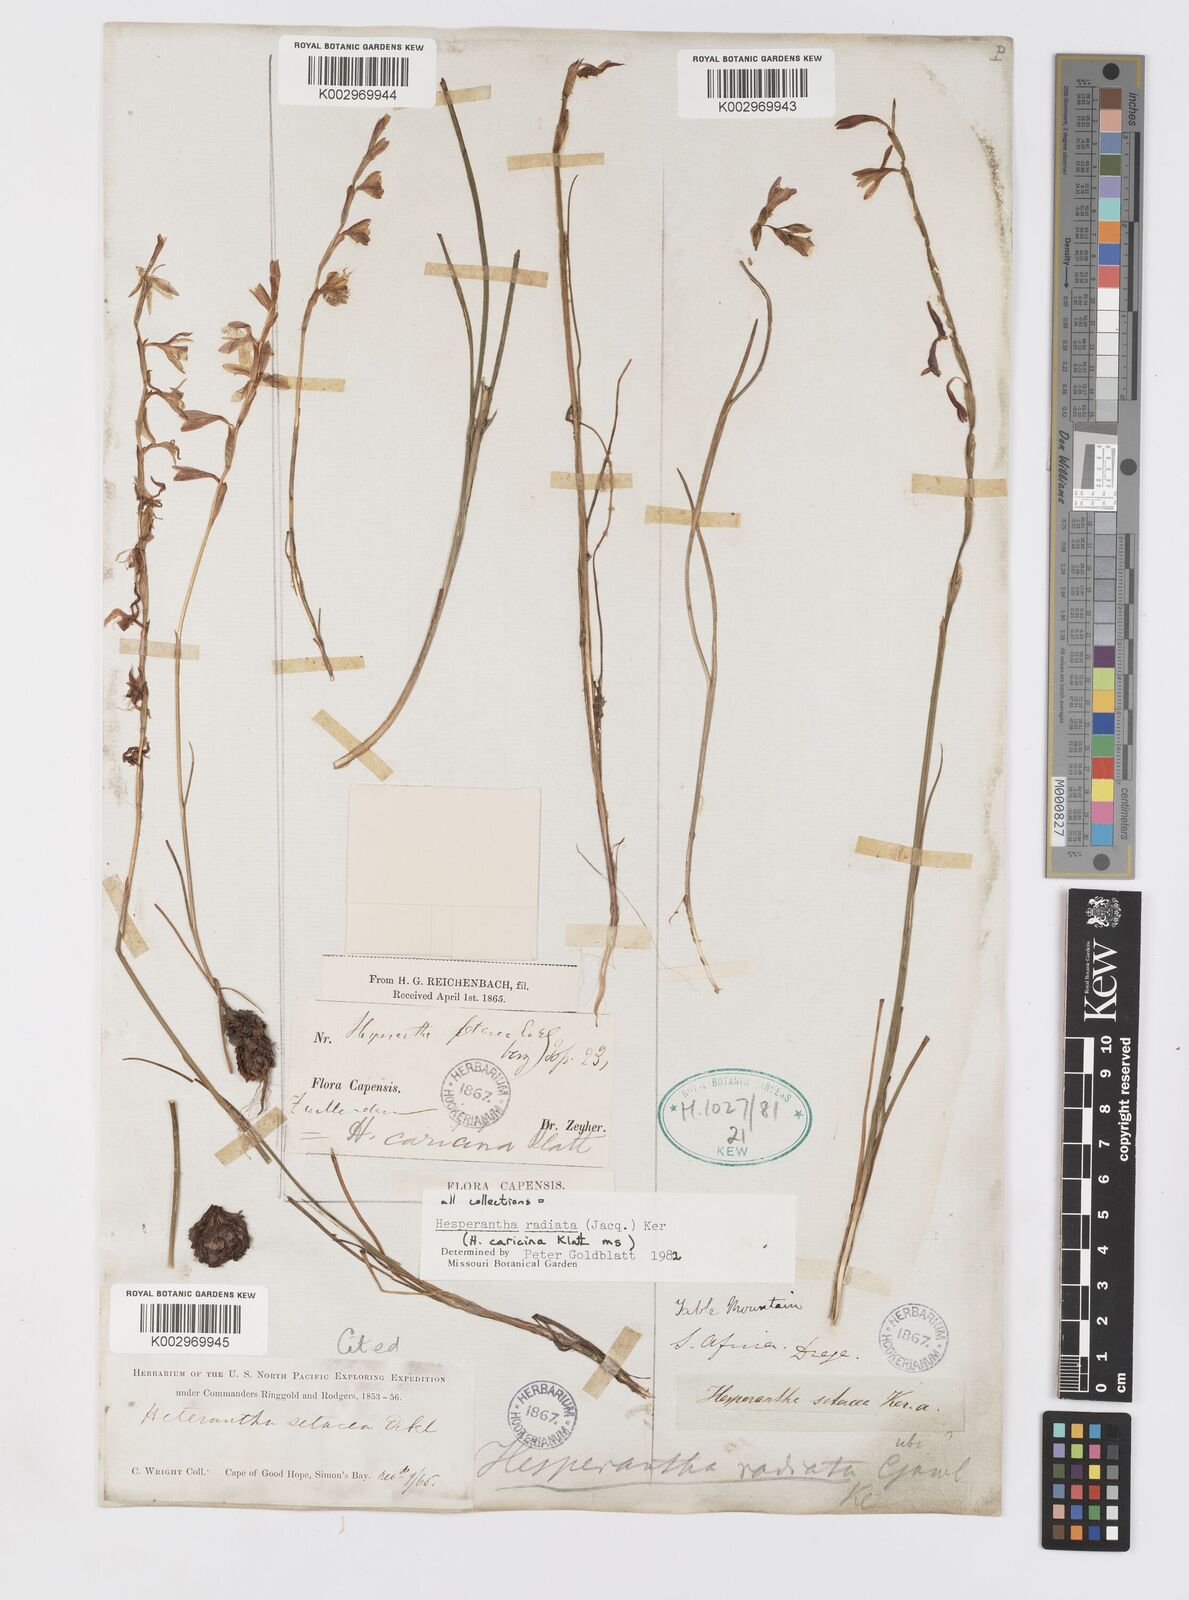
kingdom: Plantae
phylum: Tracheophyta
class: Liliopsida
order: Asparagales
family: Iridaceae
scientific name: Iridaceae
